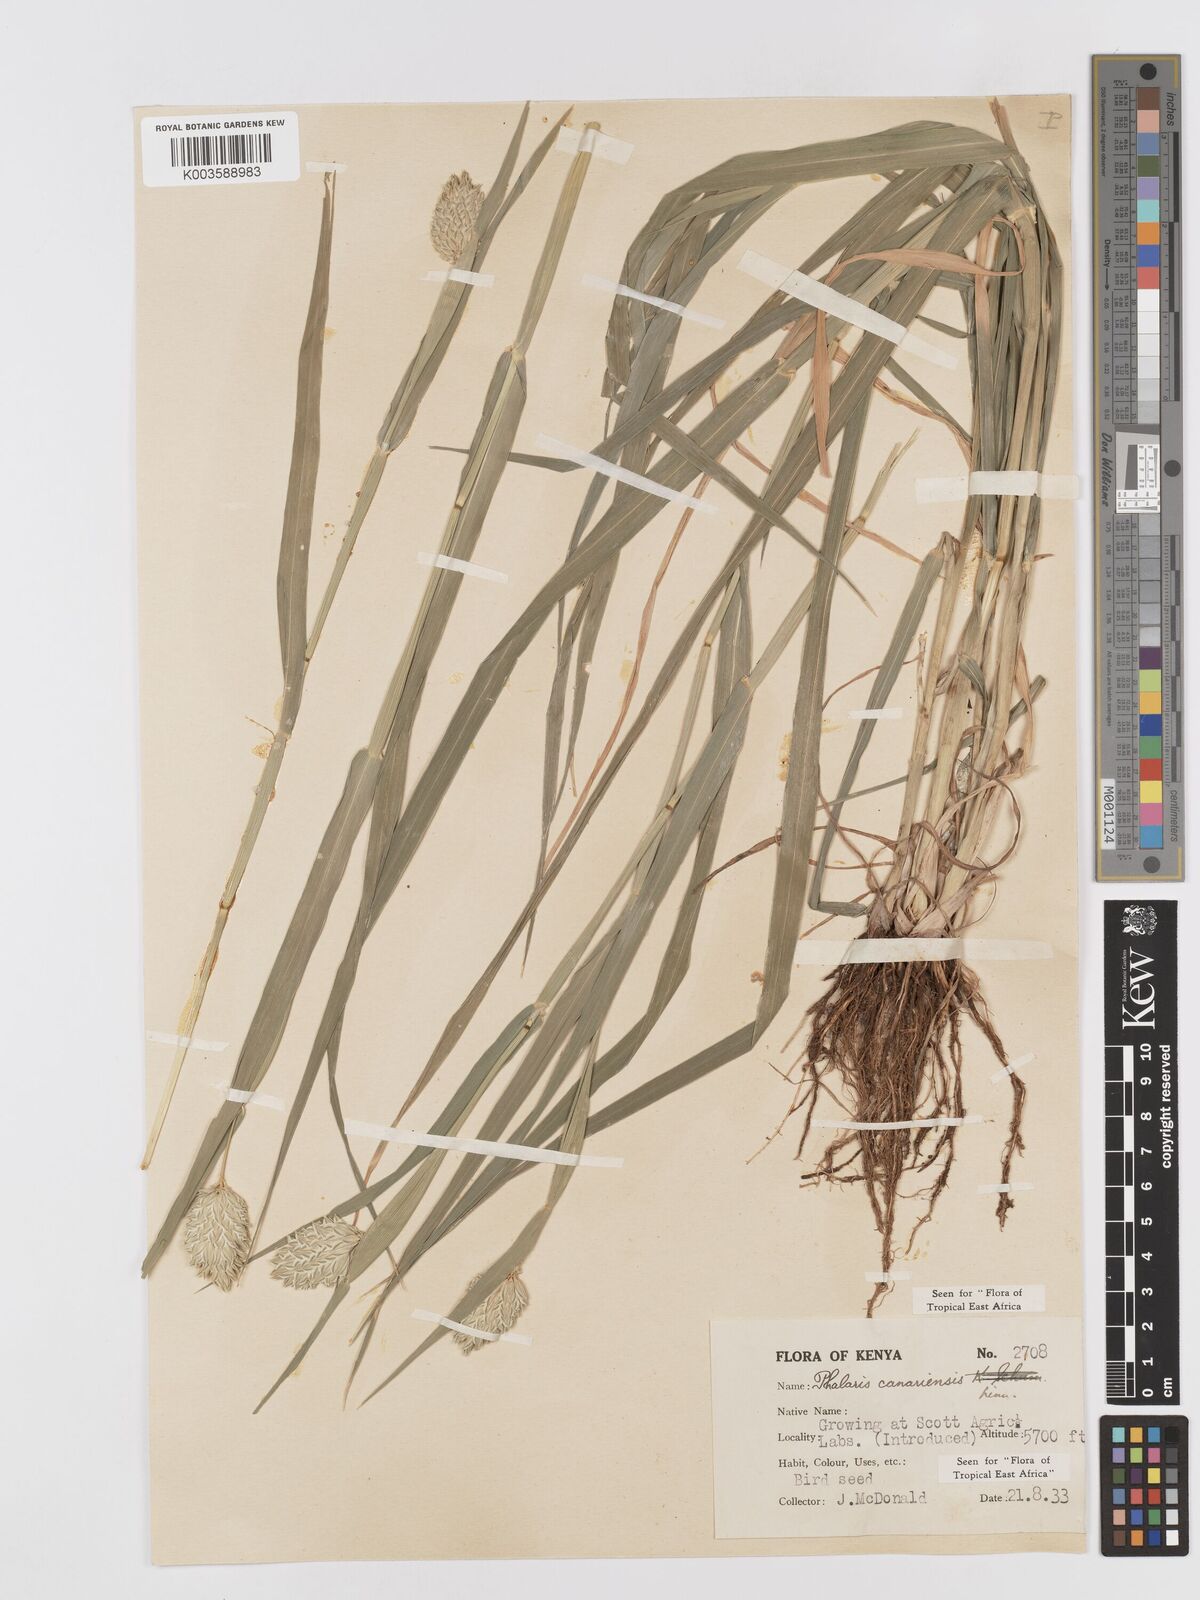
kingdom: Plantae
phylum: Tracheophyta
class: Liliopsida
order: Poales
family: Poaceae
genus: Phalaris
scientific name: Phalaris canariensis
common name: Annual canarygrass
